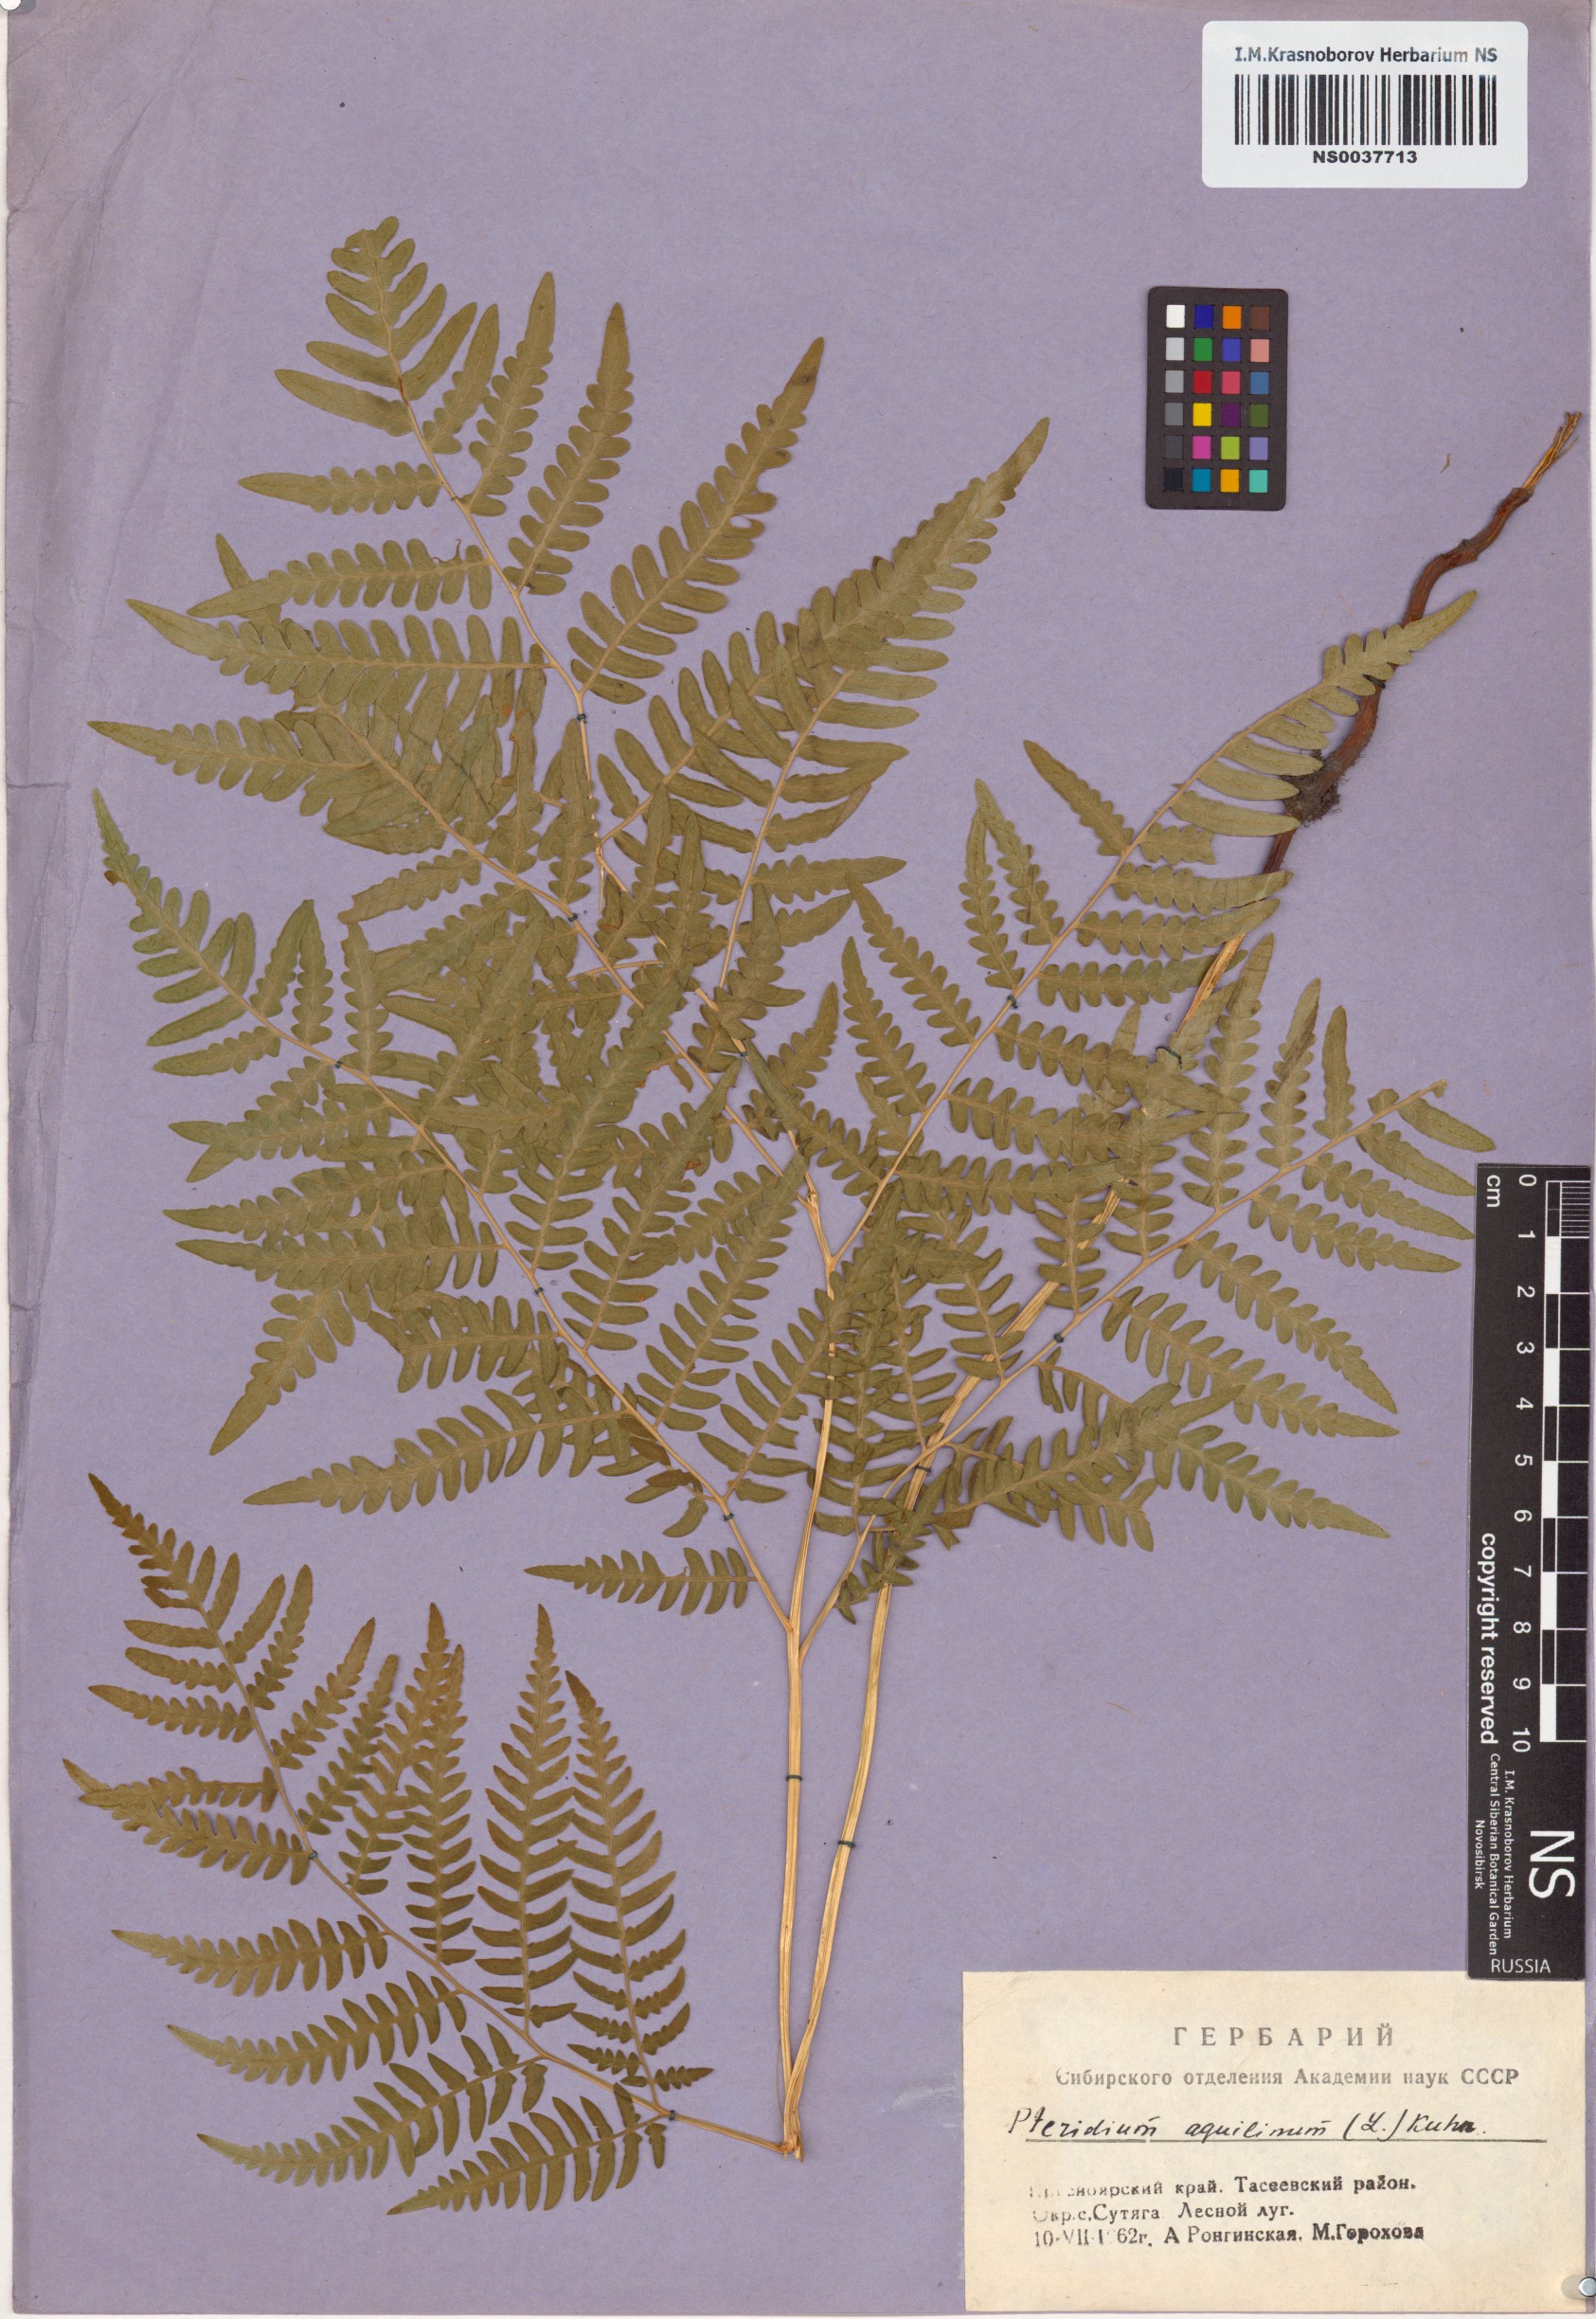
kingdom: Plantae
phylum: Tracheophyta
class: Polypodiopsida
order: Polypodiales
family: Dennstaedtiaceae
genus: Pteridium
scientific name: Pteridium aquilinum
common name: Bracken
